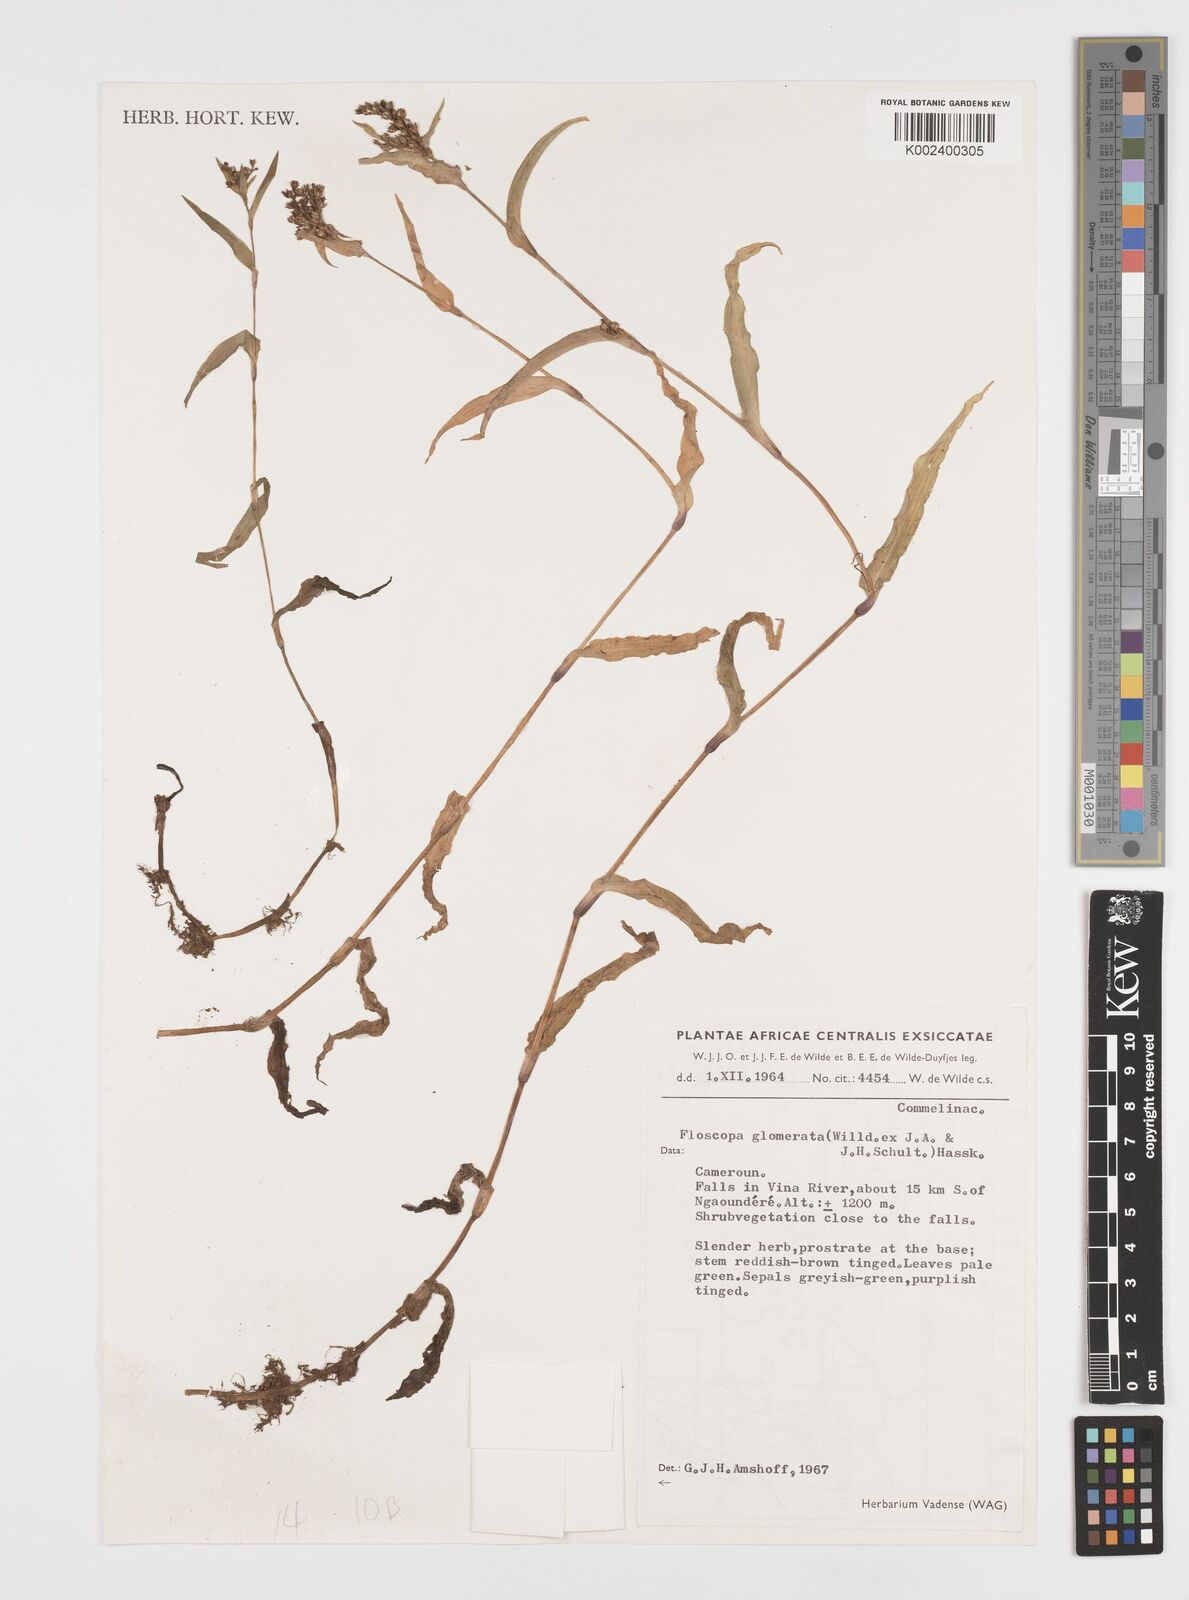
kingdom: Plantae
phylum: Tracheophyta
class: Liliopsida
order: Commelinales
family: Commelinaceae
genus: Floscopa
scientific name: Floscopa glomerata
